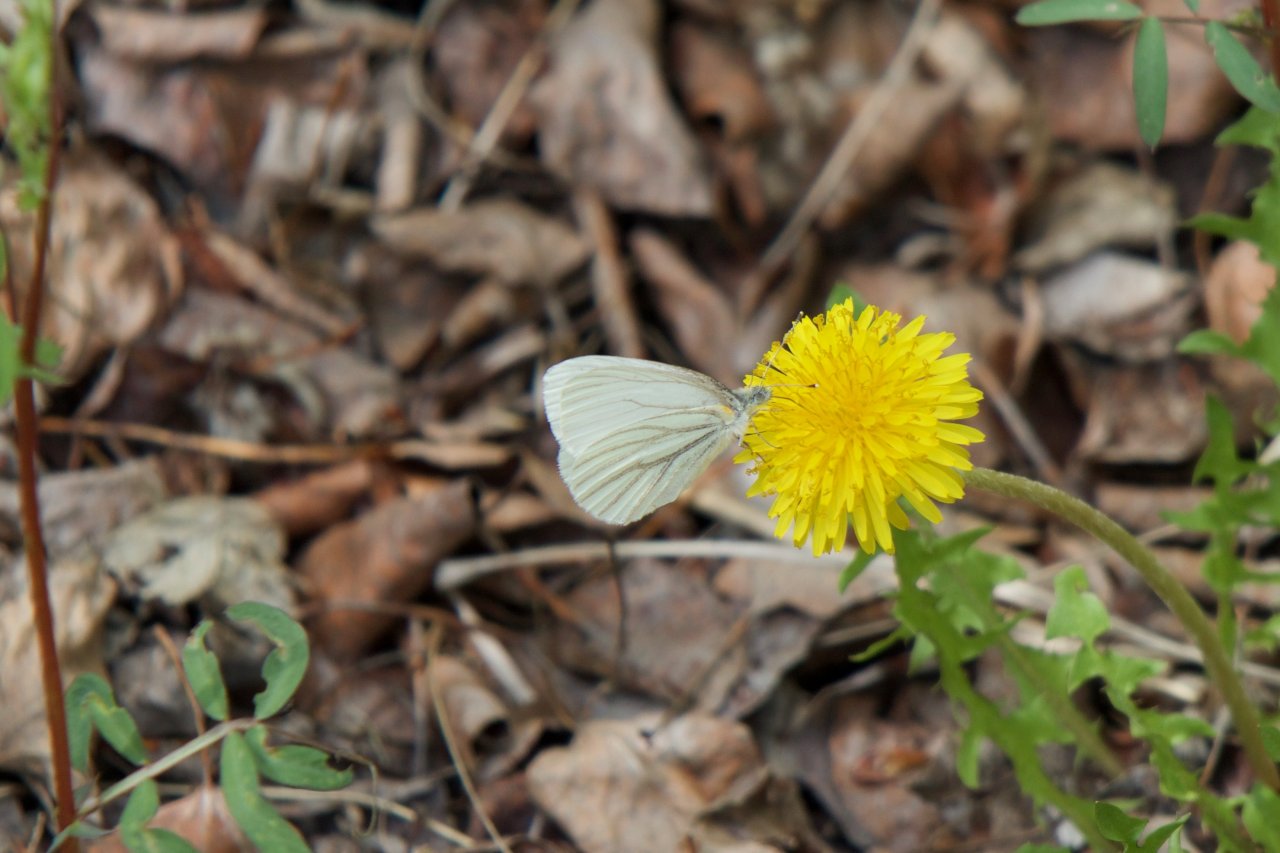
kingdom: Animalia
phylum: Arthropoda
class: Insecta
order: Lepidoptera
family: Pieridae
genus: Pieris
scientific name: Pieris oleracea
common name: Mustard White
